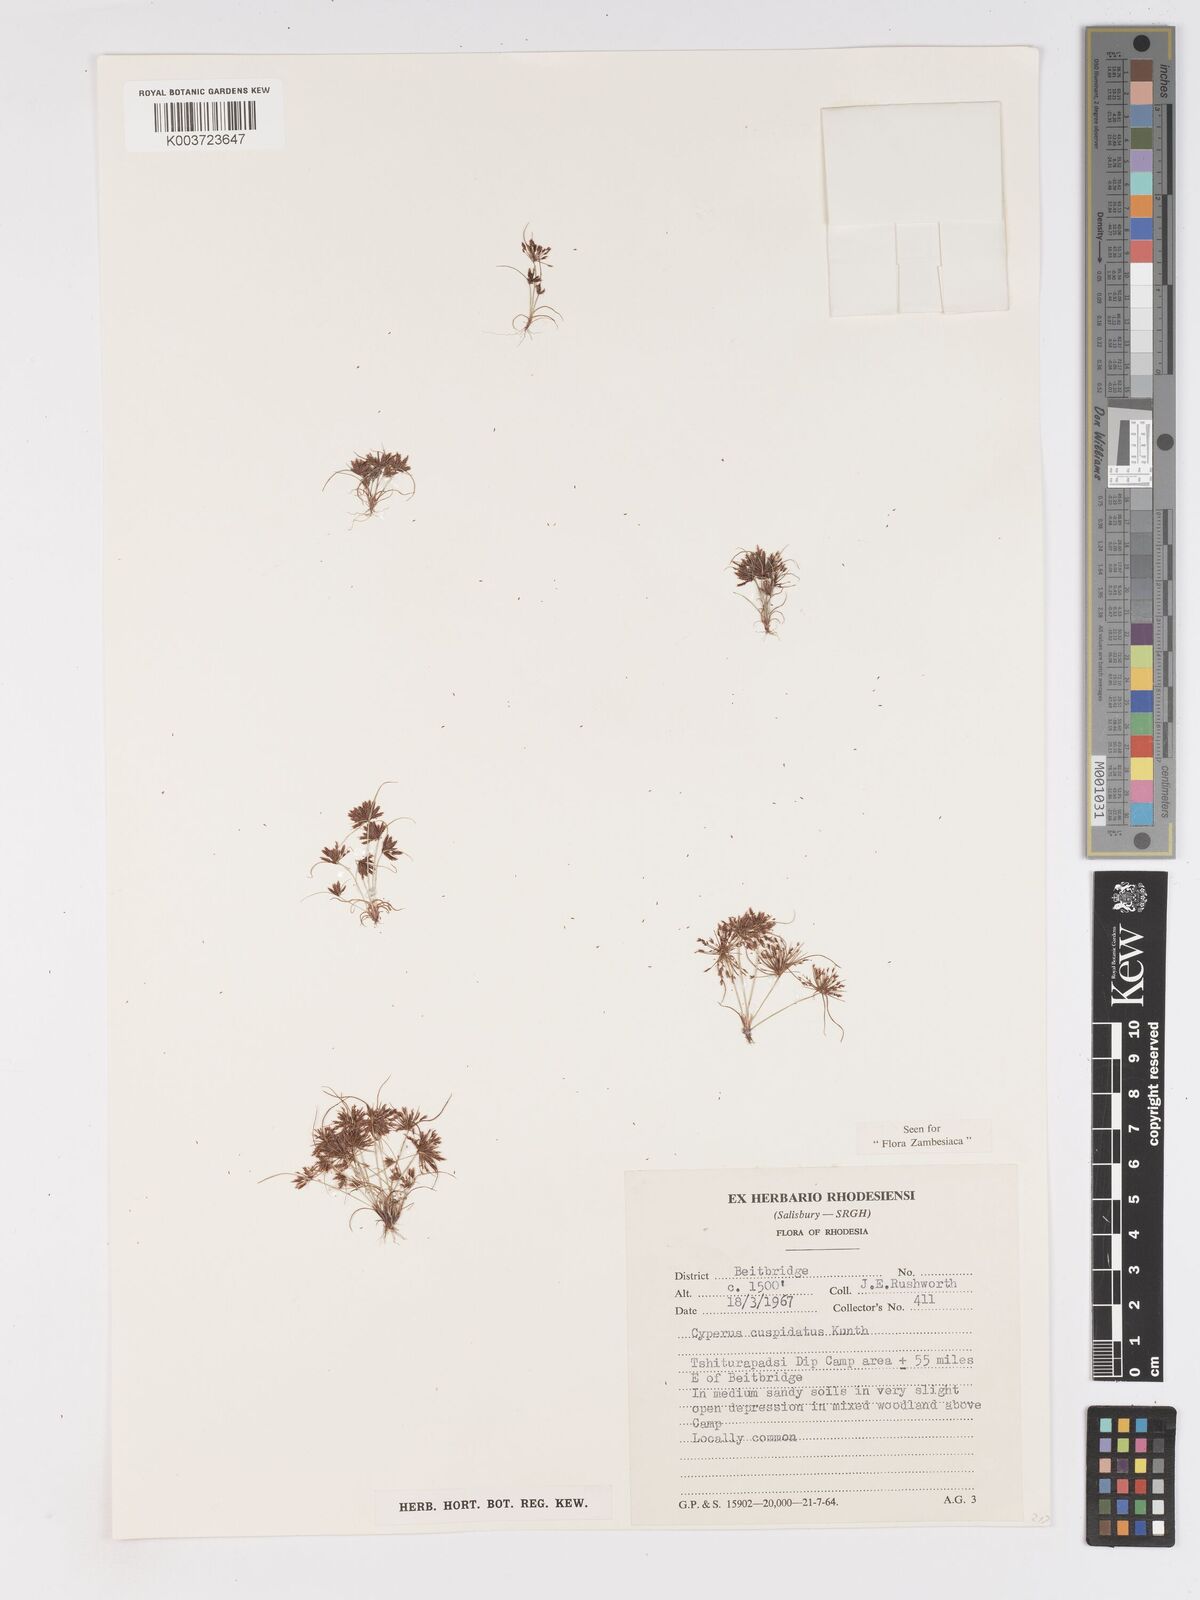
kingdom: Plantae
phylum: Tracheophyta
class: Liliopsida
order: Poales
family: Cyperaceae
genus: Cyperus
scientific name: Cyperus betafensis
